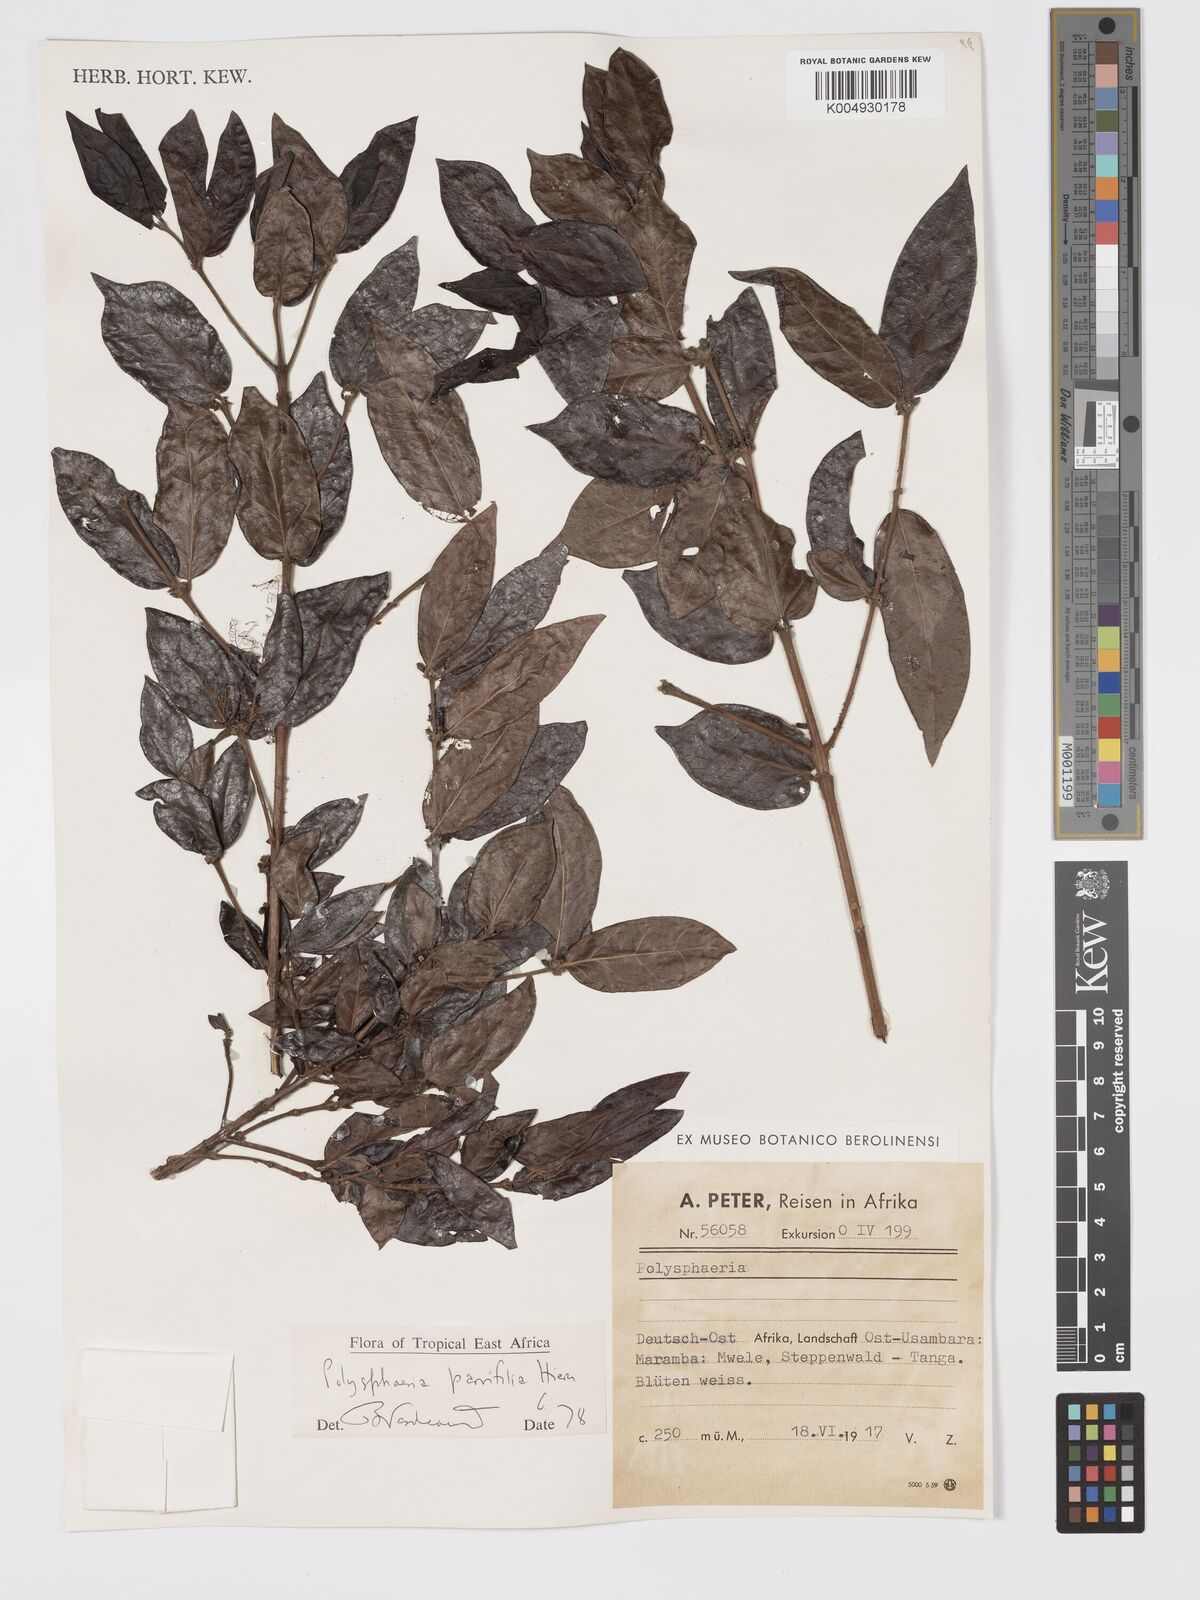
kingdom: Plantae
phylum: Tracheophyta
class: Magnoliopsida
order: Gentianales
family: Rubiaceae
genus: Polysphaeria
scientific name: Polysphaeria parvifolia
